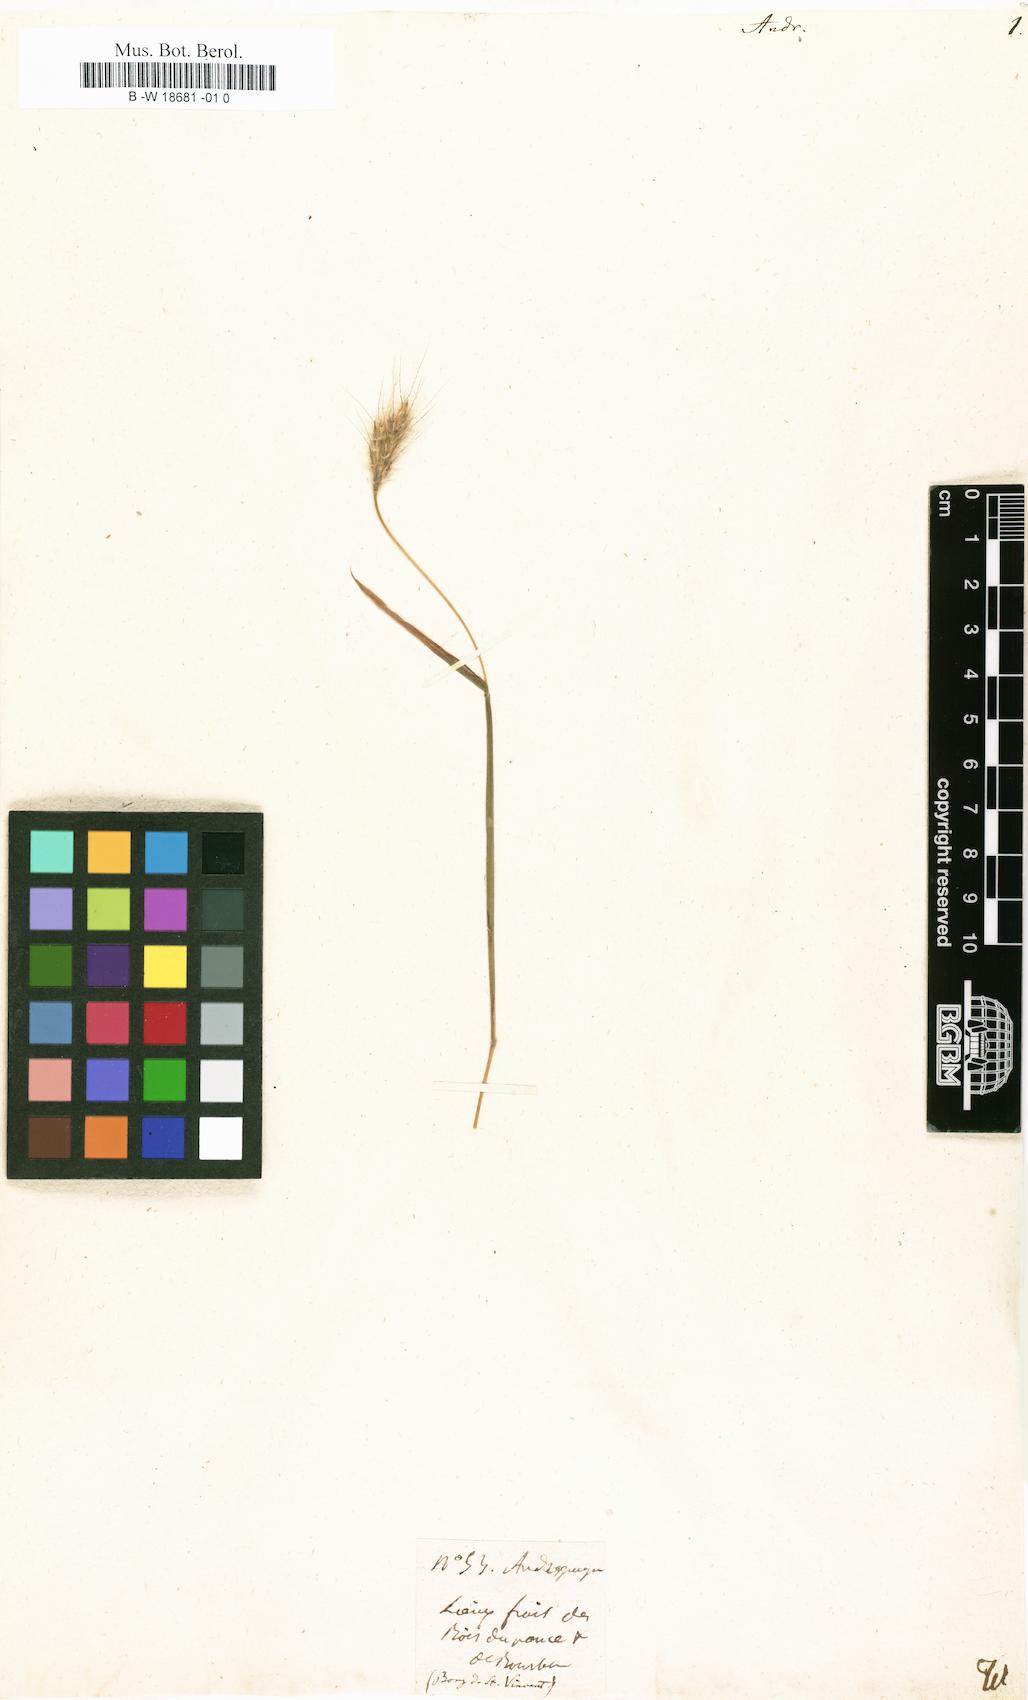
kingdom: Plantae
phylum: Tracheophyta
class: Liliopsida
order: Poales
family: Poaceae
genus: Andropogon
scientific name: Andropogon
